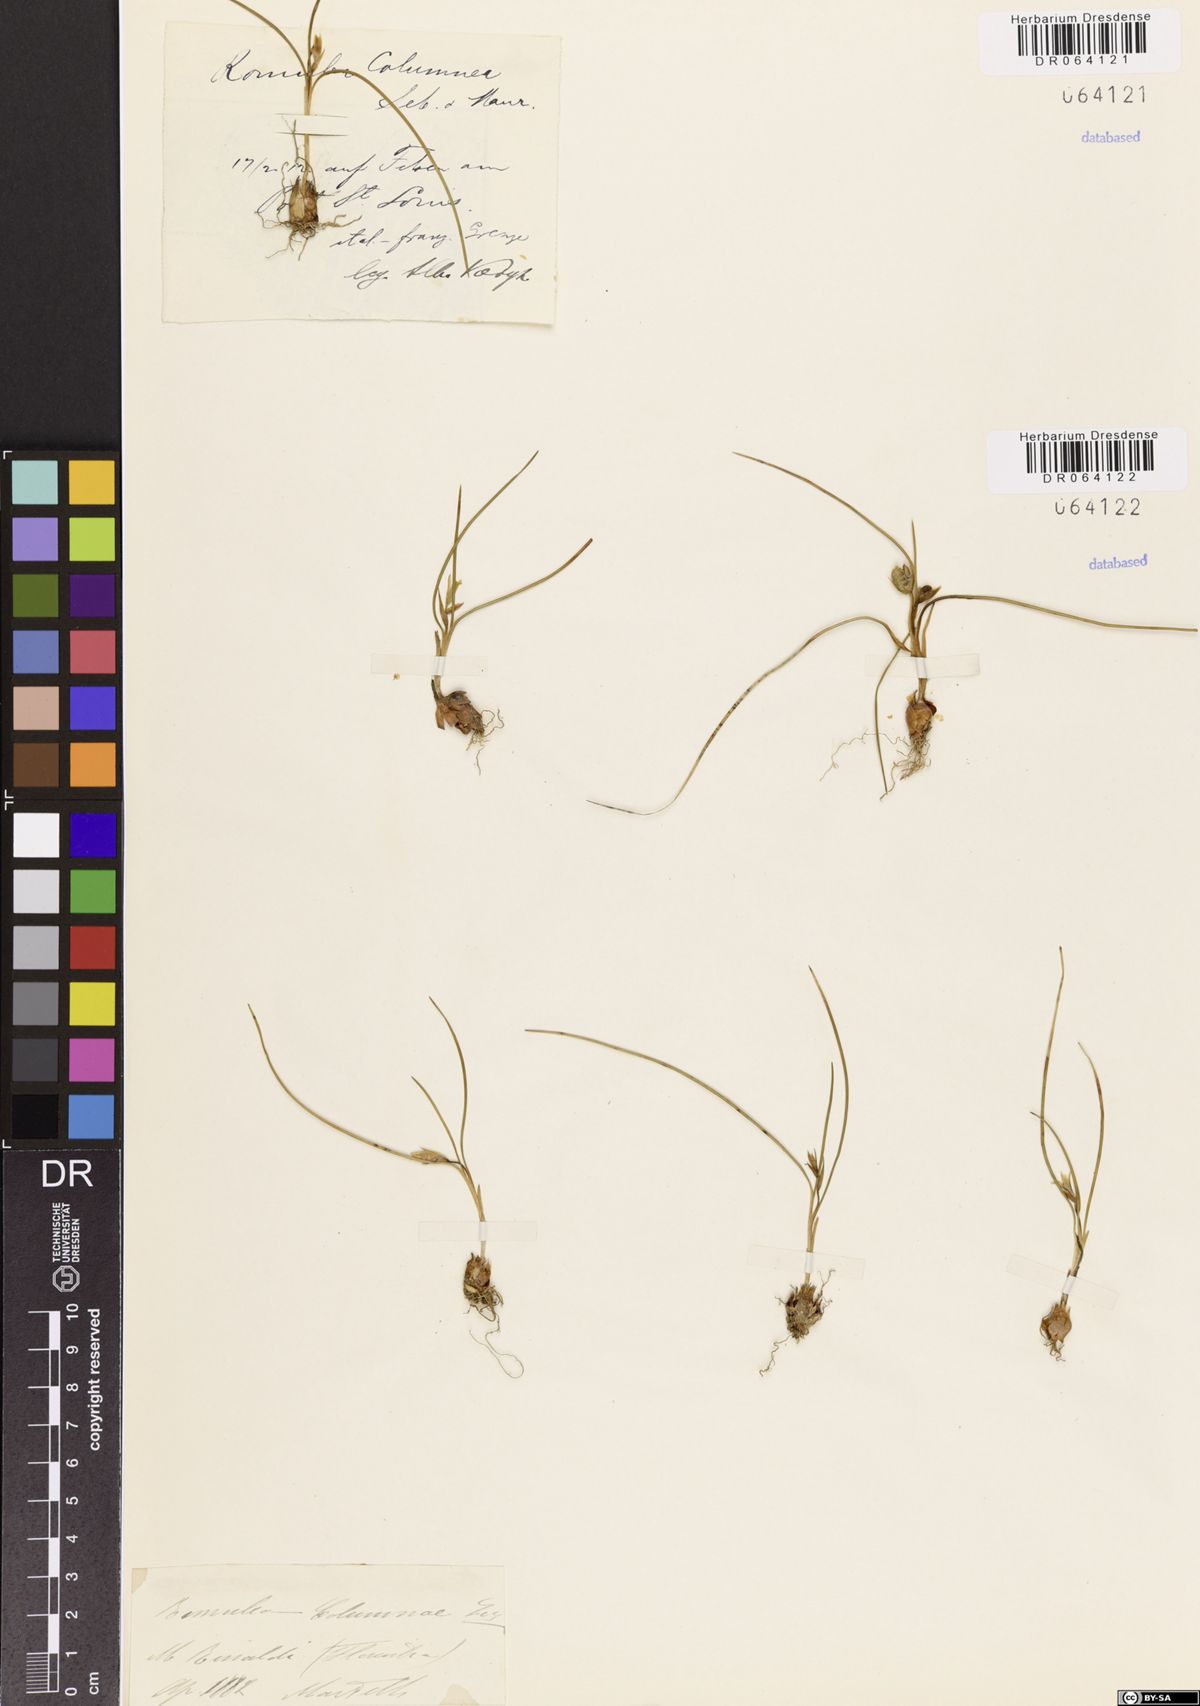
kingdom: Plantae
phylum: Tracheophyta
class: Liliopsida
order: Asparagales
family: Iridaceae
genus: Romulea
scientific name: Romulea columnae
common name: Sand-crocus
